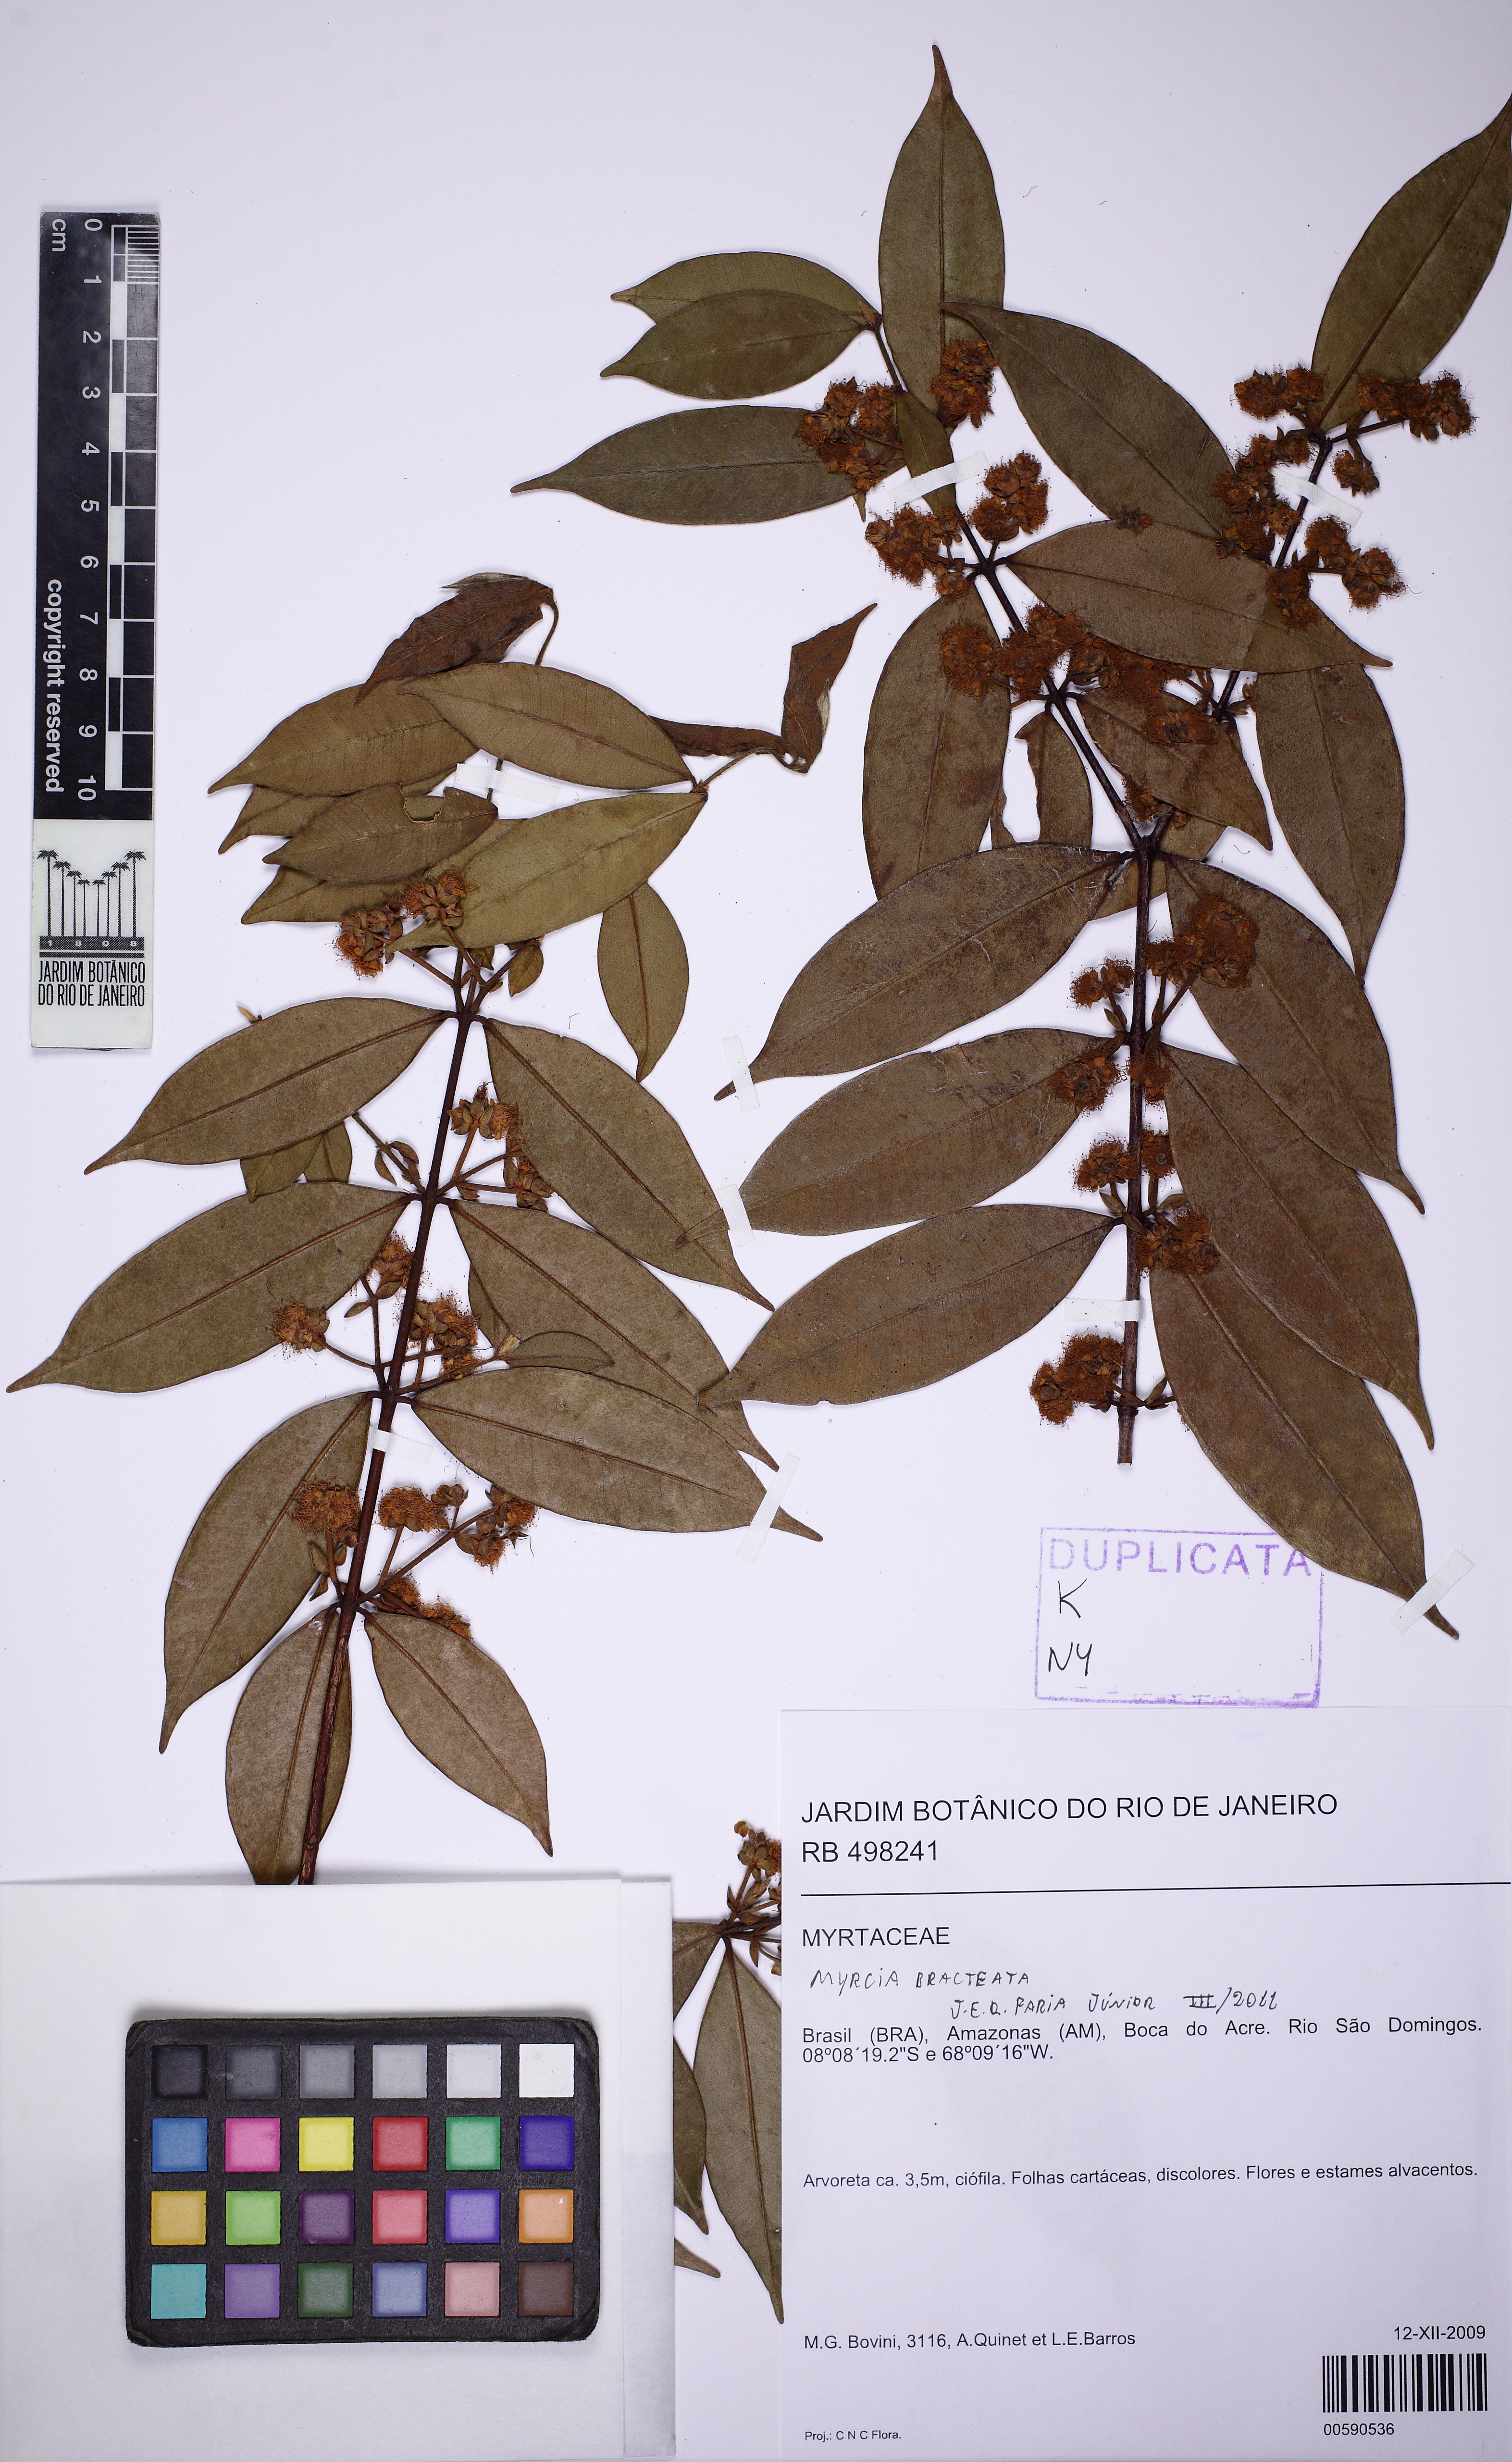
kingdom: Plantae
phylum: Tracheophyta
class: Magnoliopsida
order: Myrtales
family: Myrtaceae
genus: Myrcia
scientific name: Myrcia bracteata
